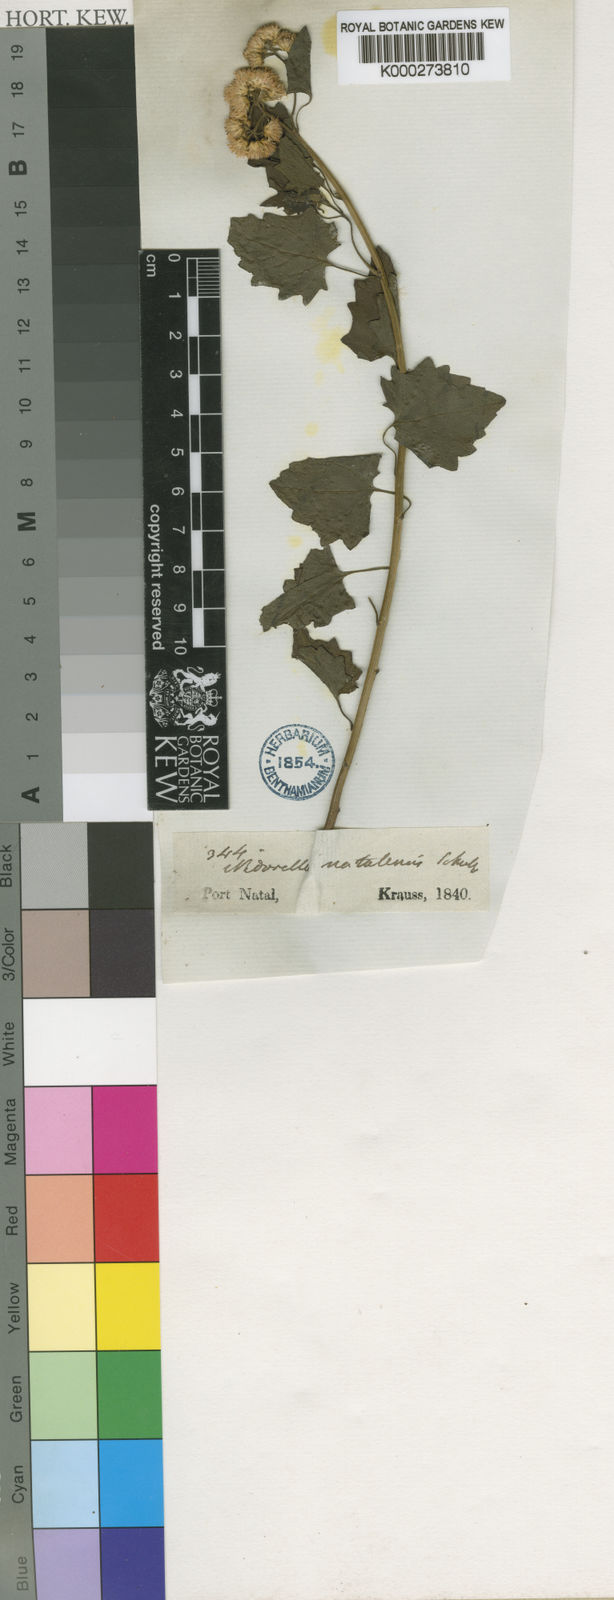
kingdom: Plantae
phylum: Tracheophyta
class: Magnoliopsida
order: Asterales
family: Asteraceae
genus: Microglossa
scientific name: Microglossa mespilifolia
